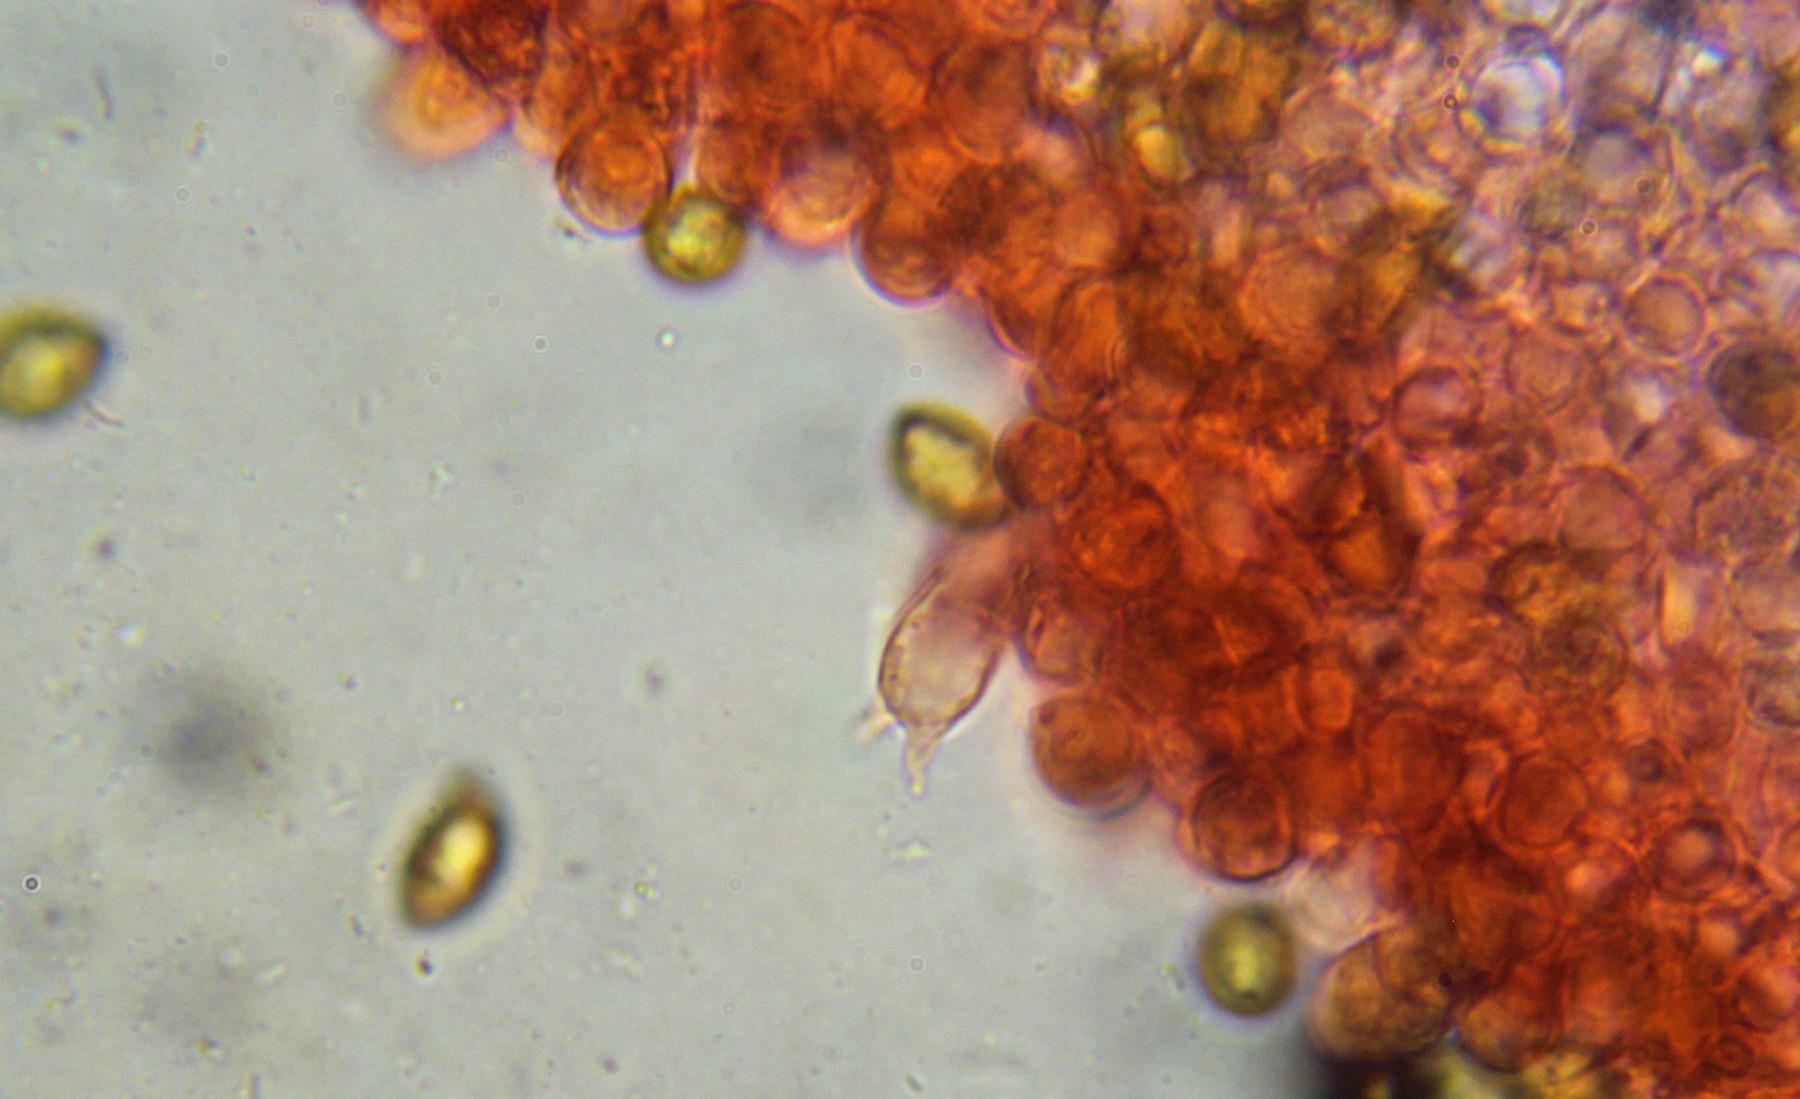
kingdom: Fungi
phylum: Basidiomycota
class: Agaricomycetes
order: Agaricales
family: Inocybaceae
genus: Inocybe
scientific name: Inocybe hirtella
